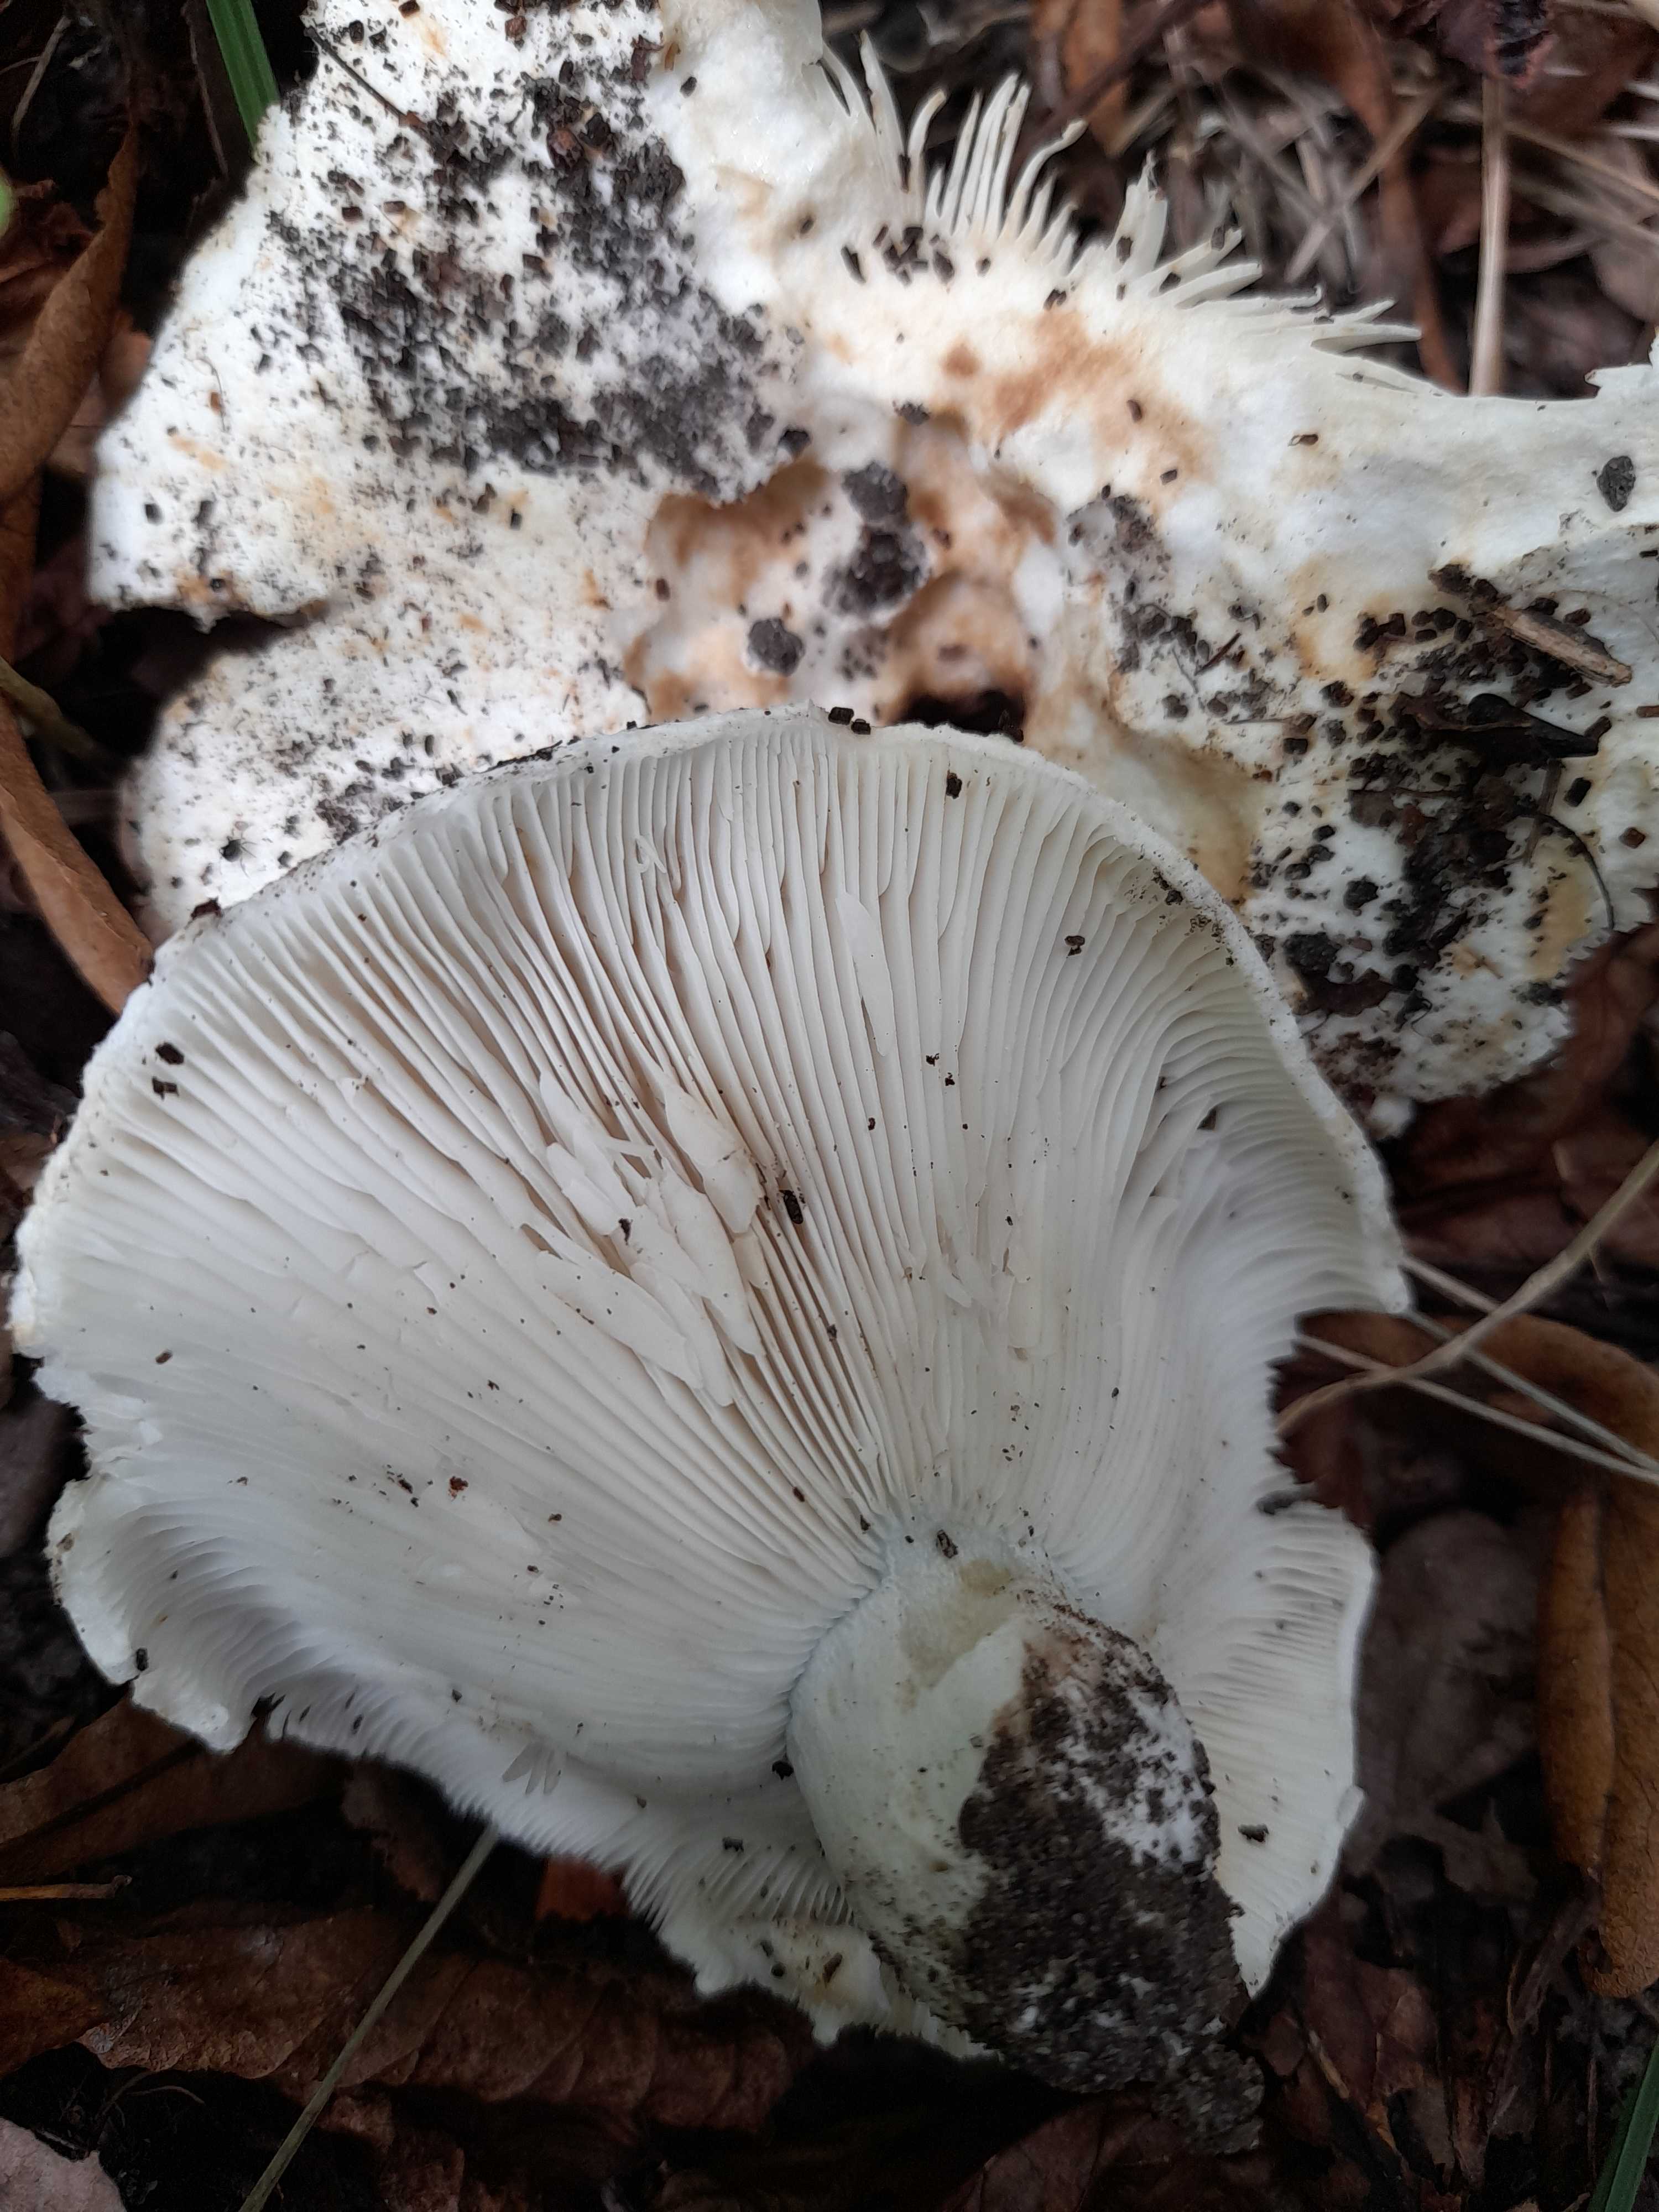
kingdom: Fungi
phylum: Basidiomycota
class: Agaricomycetes
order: Russulales
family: Russulaceae
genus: Russula
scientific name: Russula chloroides
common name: grønhalset tragt-skørhat
